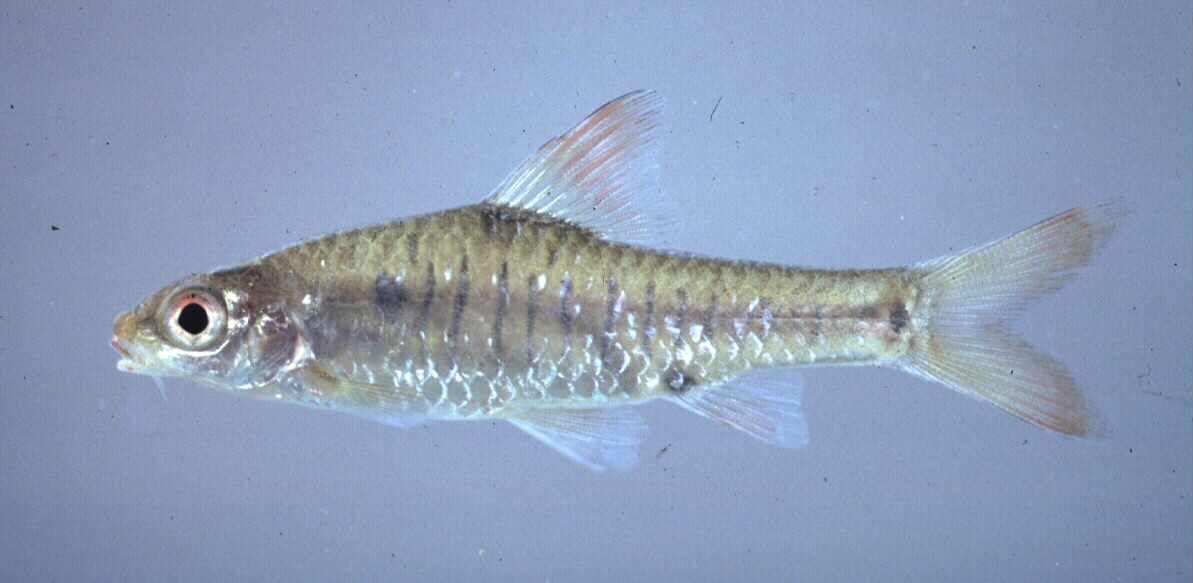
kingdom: Animalia
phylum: Chordata
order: Cypriniformes
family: Cyprinidae
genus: Enteromius
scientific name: Enteromius fasciolatus
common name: Red barb
